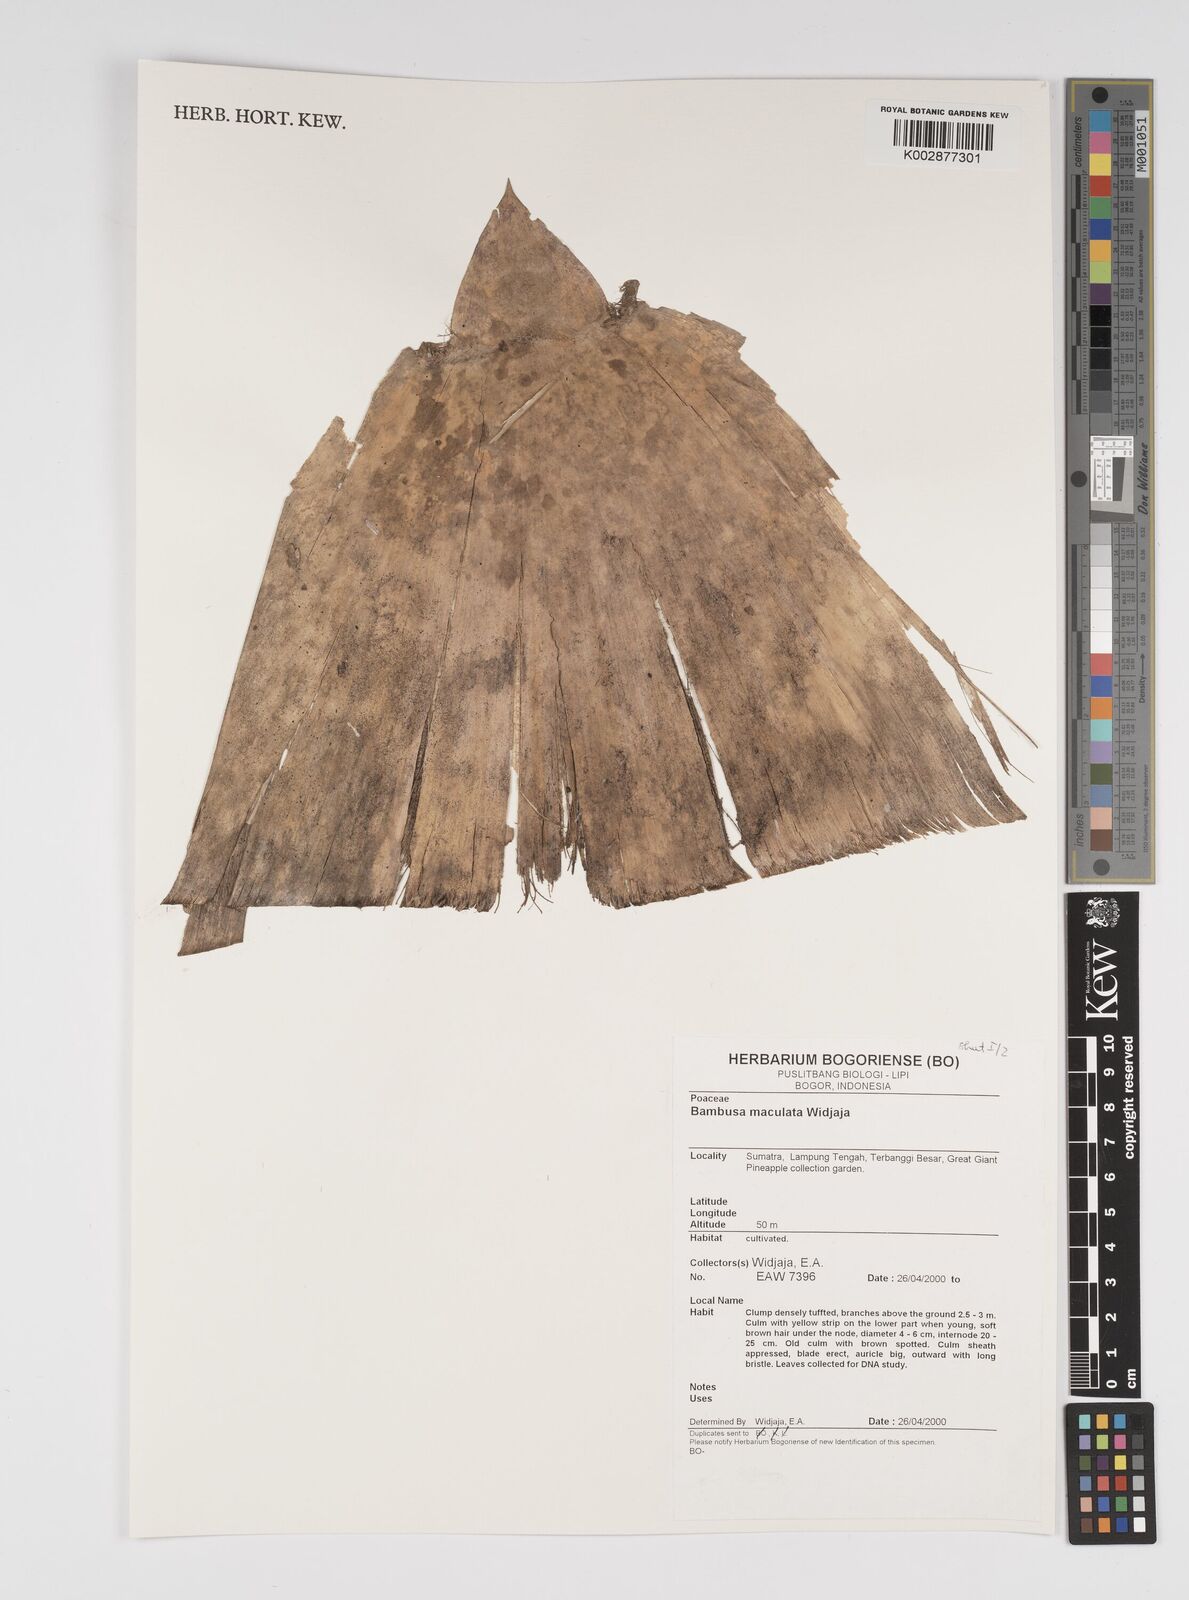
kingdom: Plantae
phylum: Tracheophyta
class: Liliopsida
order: Poales
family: Poaceae
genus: Bambusa
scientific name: Bambusa maculata
